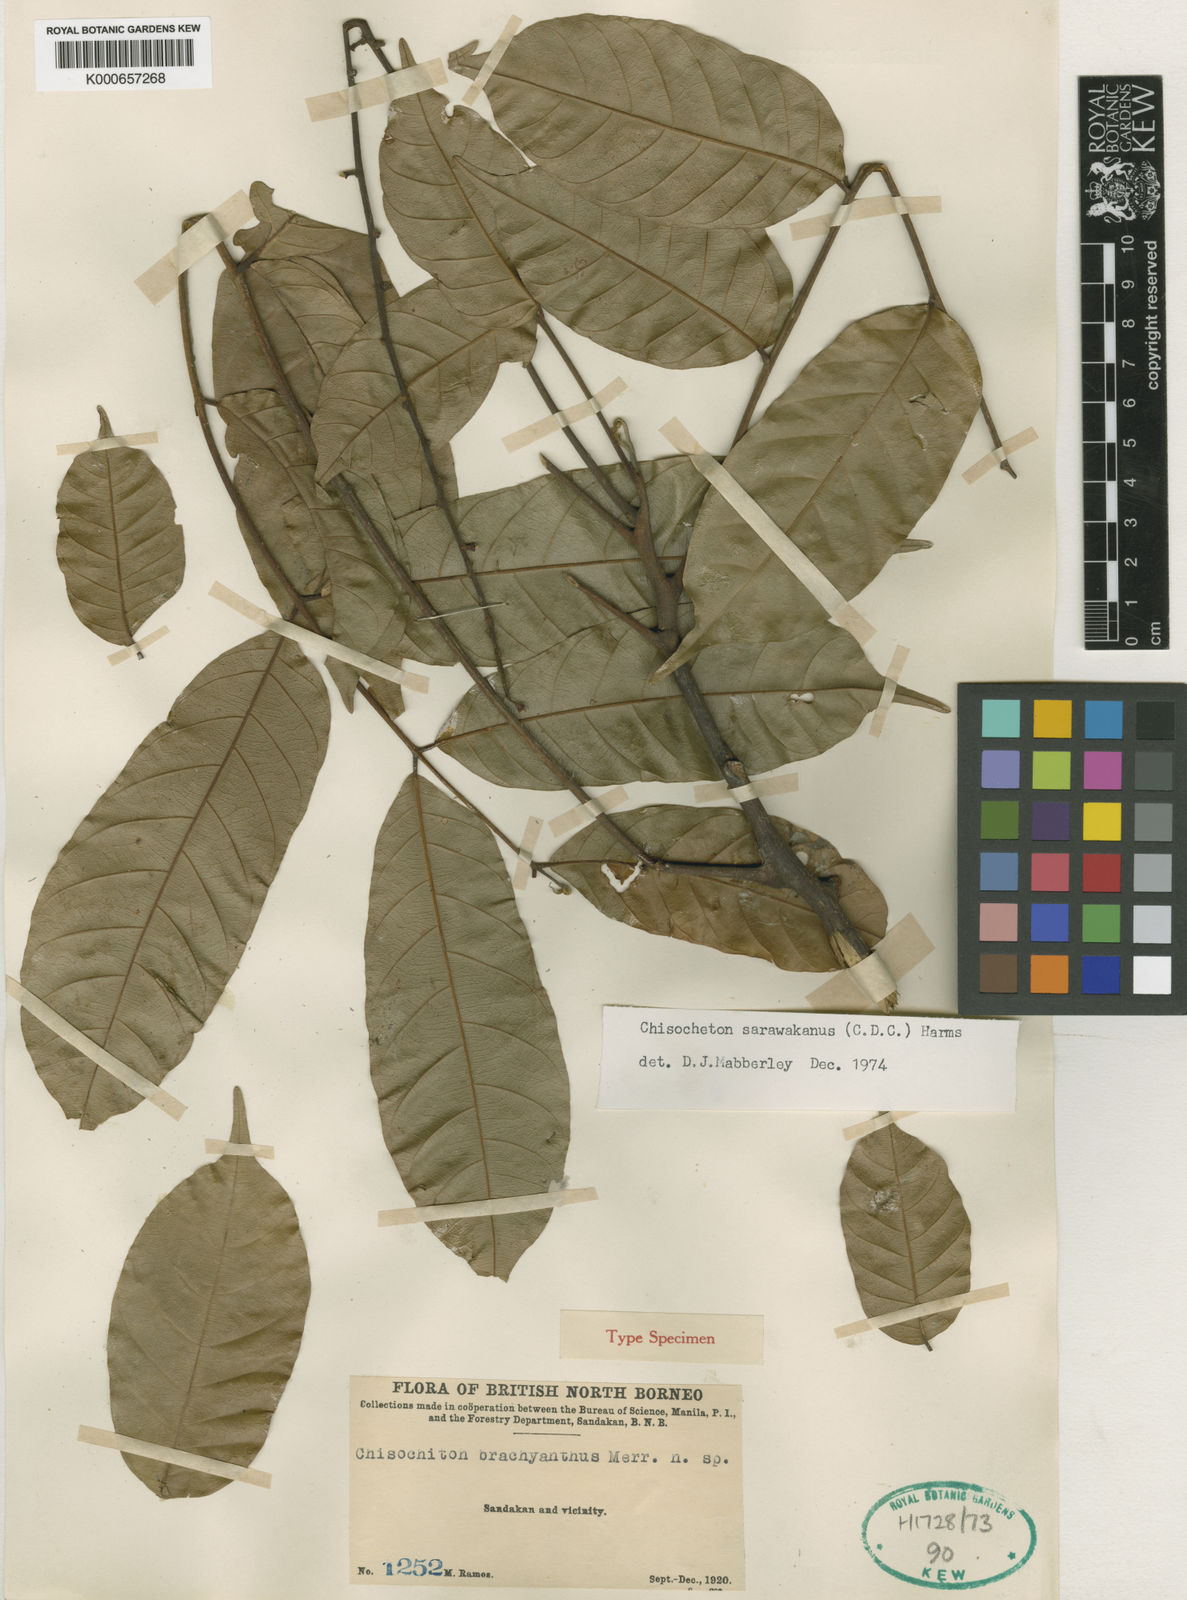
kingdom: Plantae
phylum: Tracheophyta
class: Magnoliopsida
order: Sapindales
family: Meliaceae
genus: Chisocheton
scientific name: Chisocheton sarawakanus
